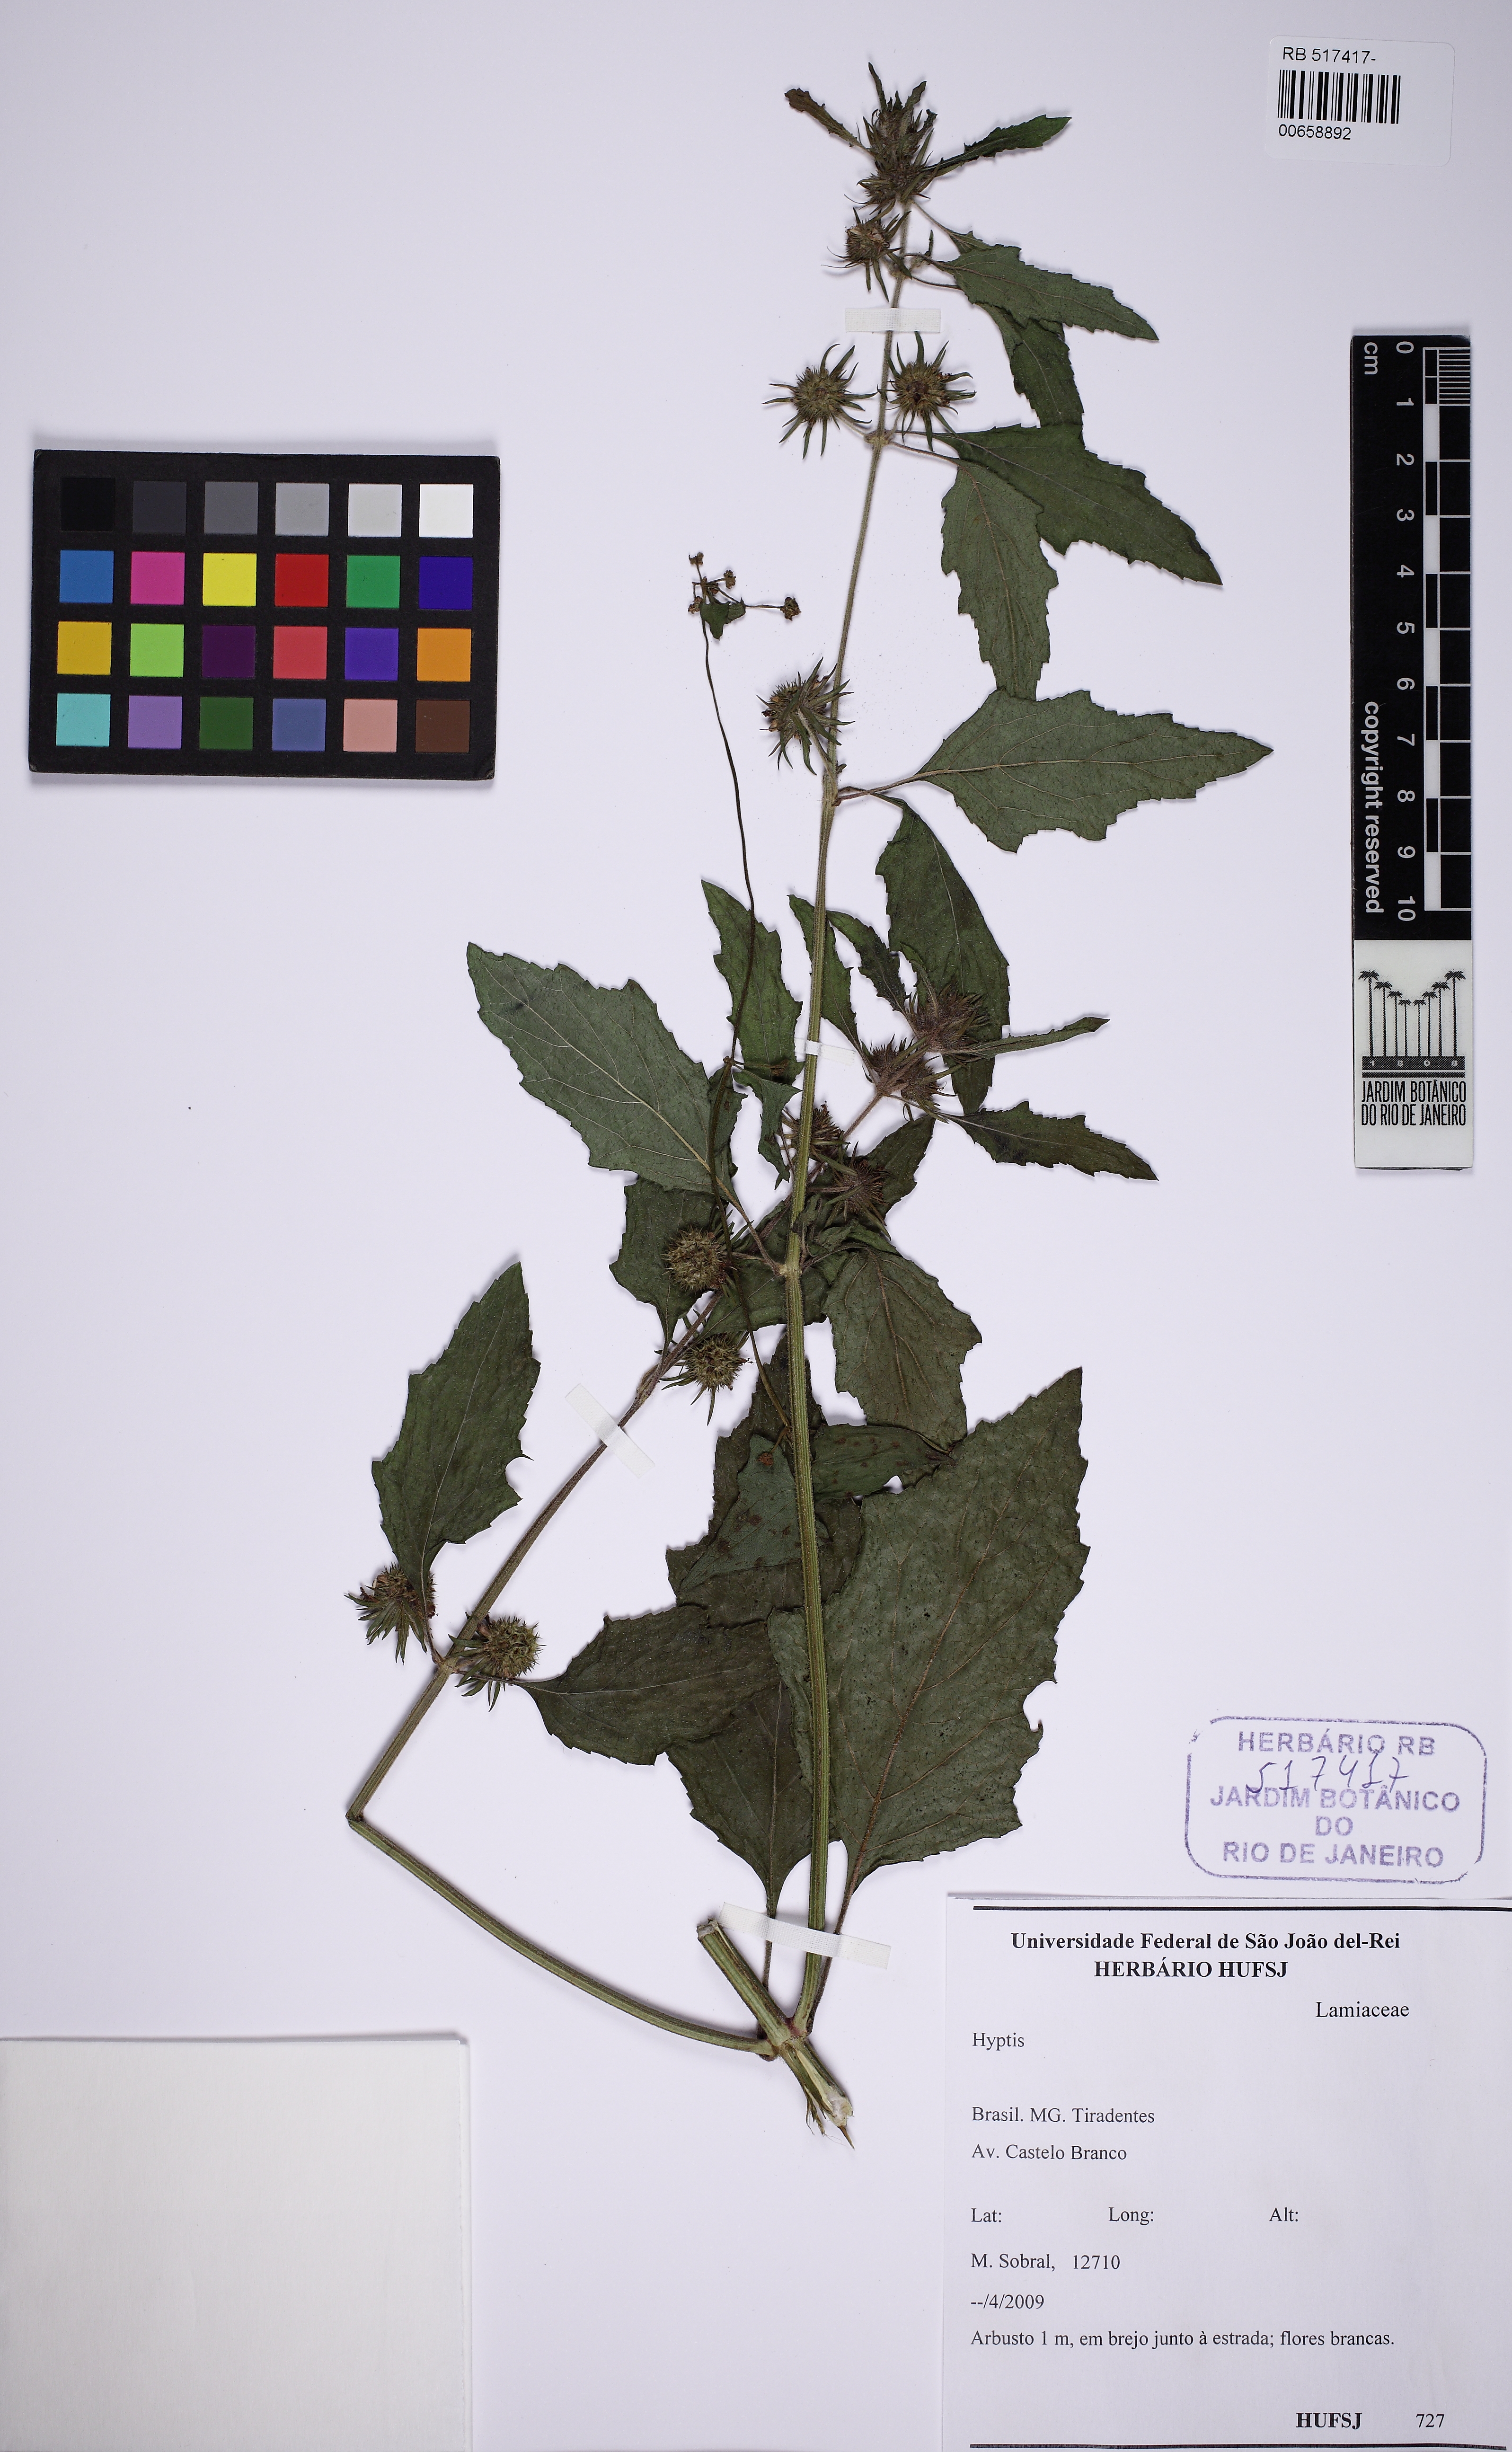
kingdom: Plantae
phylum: Tracheophyta
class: Magnoliopsida
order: Lamiales
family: Lamiaceae
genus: Hyptis
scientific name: Hyptis
